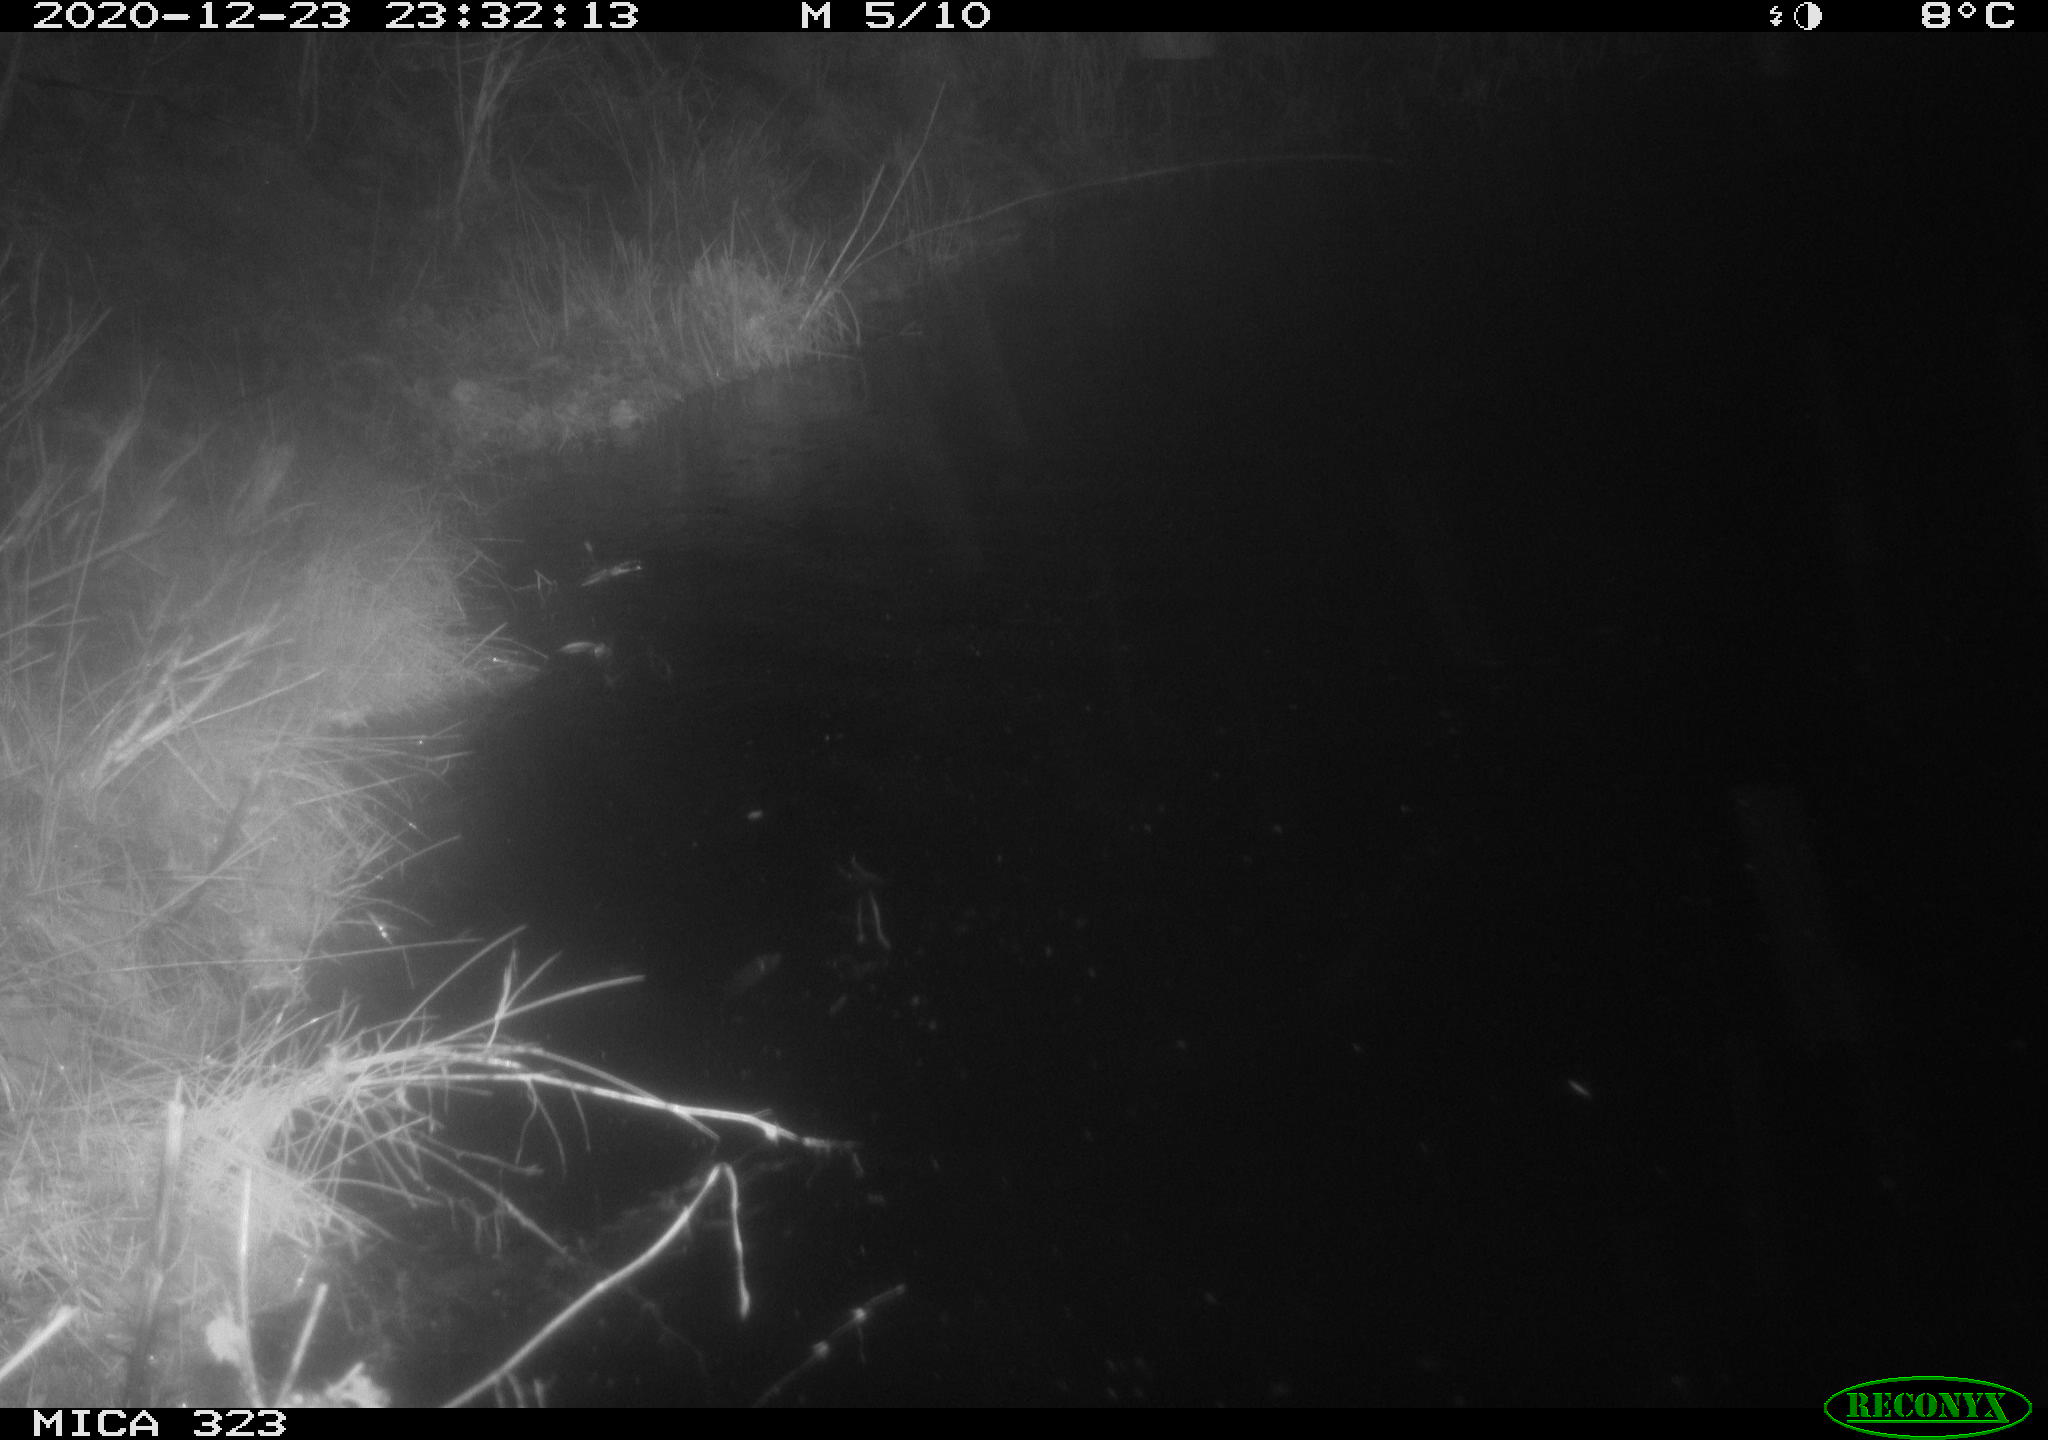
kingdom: Animalia
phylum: Chordata
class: Mammalia
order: Rodentia
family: Myocastoridae
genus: Myocastor
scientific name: Myocastor coypus
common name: Coypu
